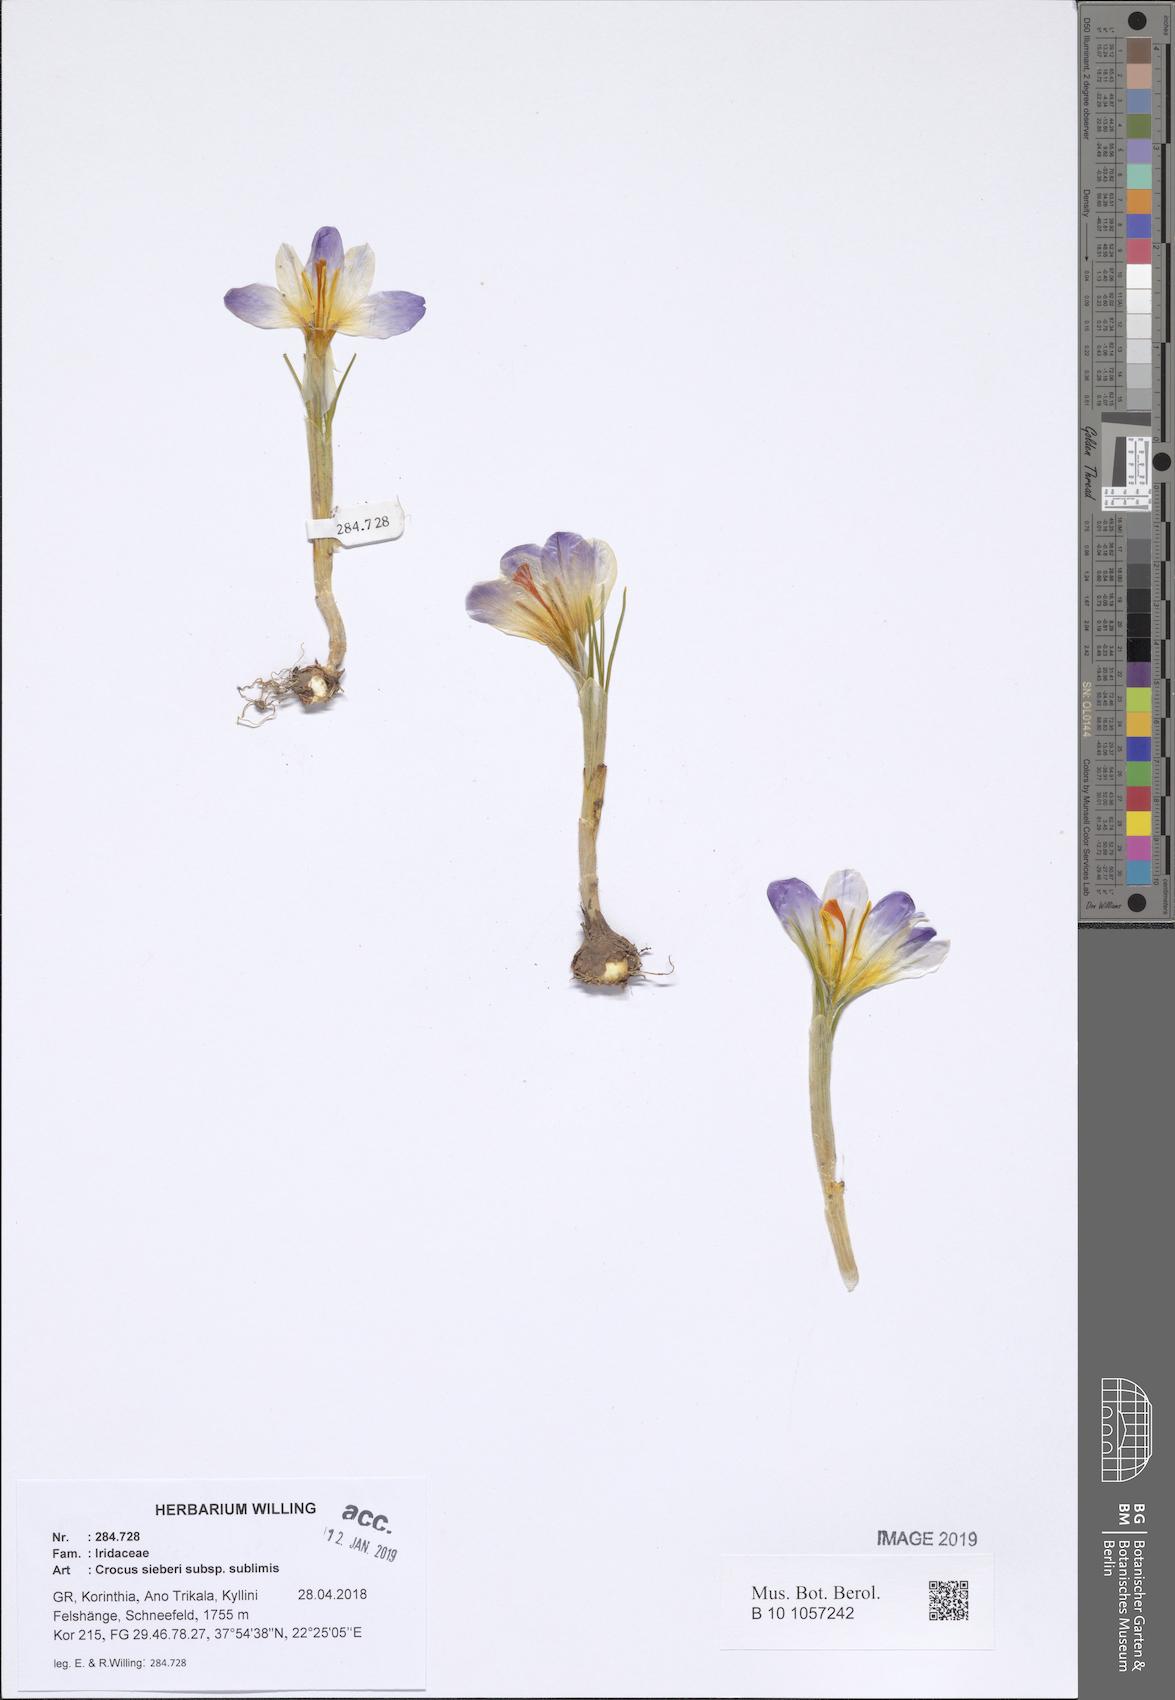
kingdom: Plantae
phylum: Tracheophyta
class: Liliopsida
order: Asparagales
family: Iridaceae
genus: Crocus
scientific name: Crocus nivalis
